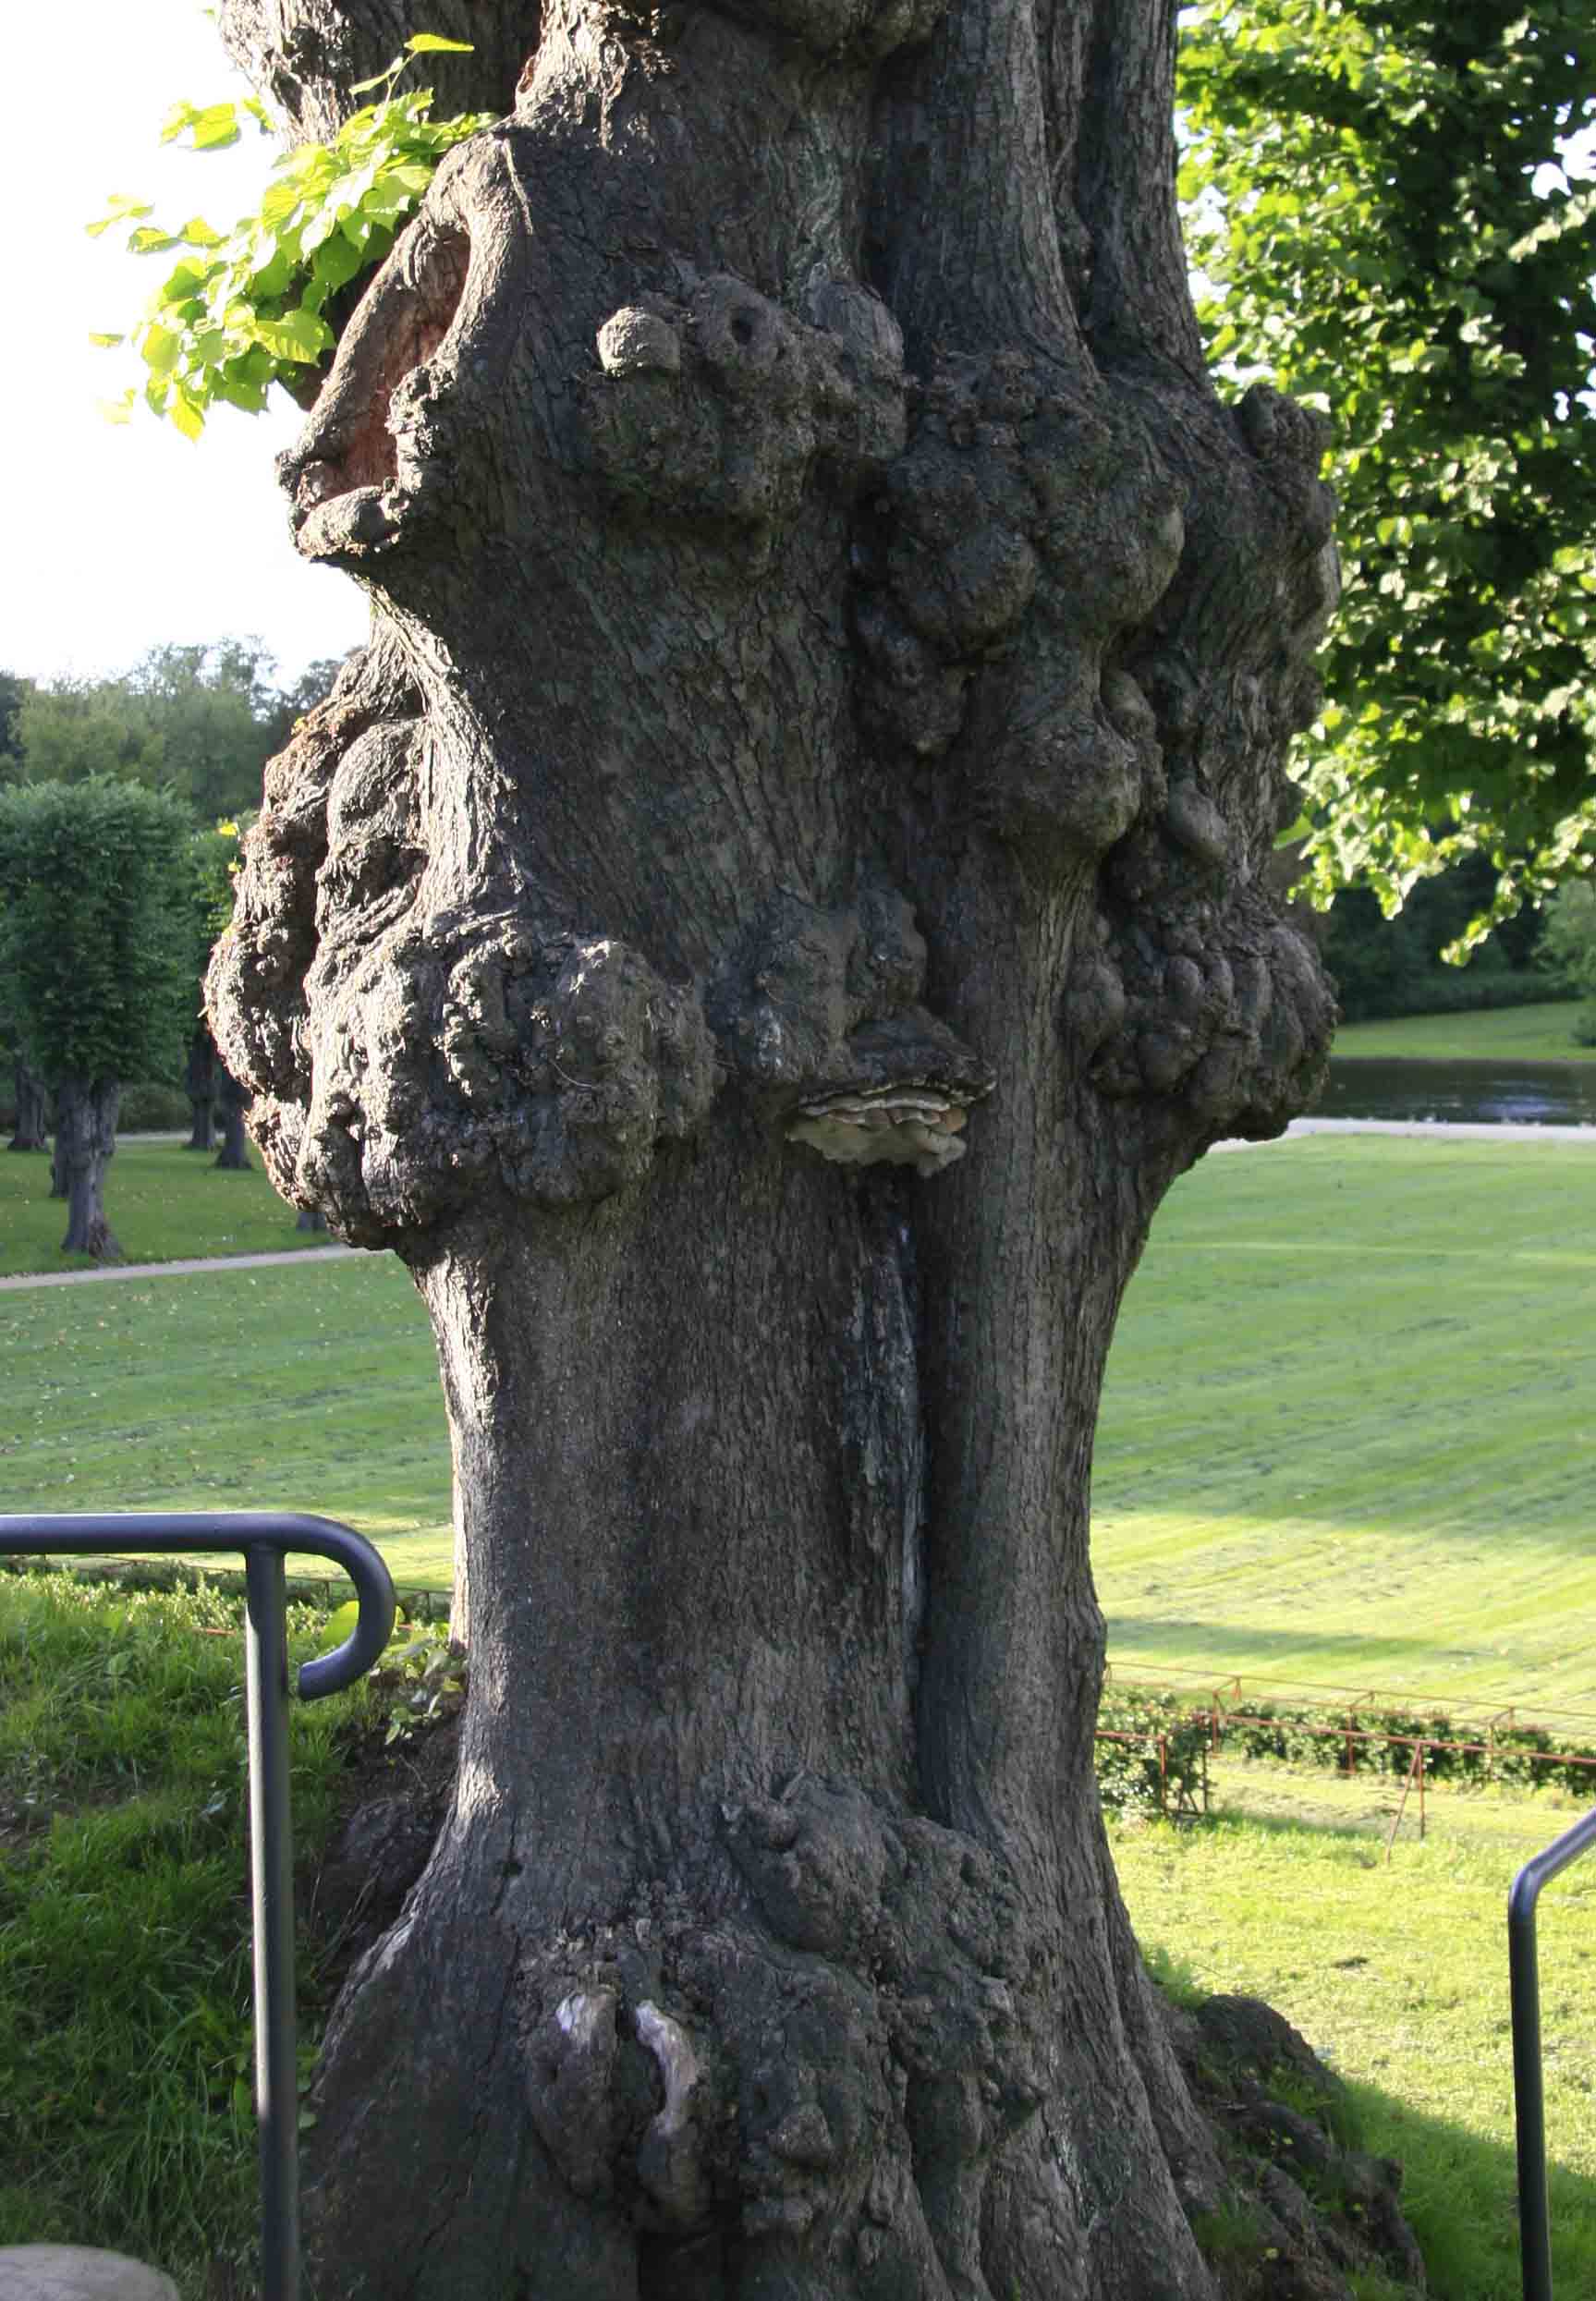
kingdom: Fungi
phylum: Basidiomycota
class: Agaricomycetes
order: Polyporales
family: Polyporaceae
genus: Ganoderma
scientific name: Ganoderma adspersum
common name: grov lakporesvamp
